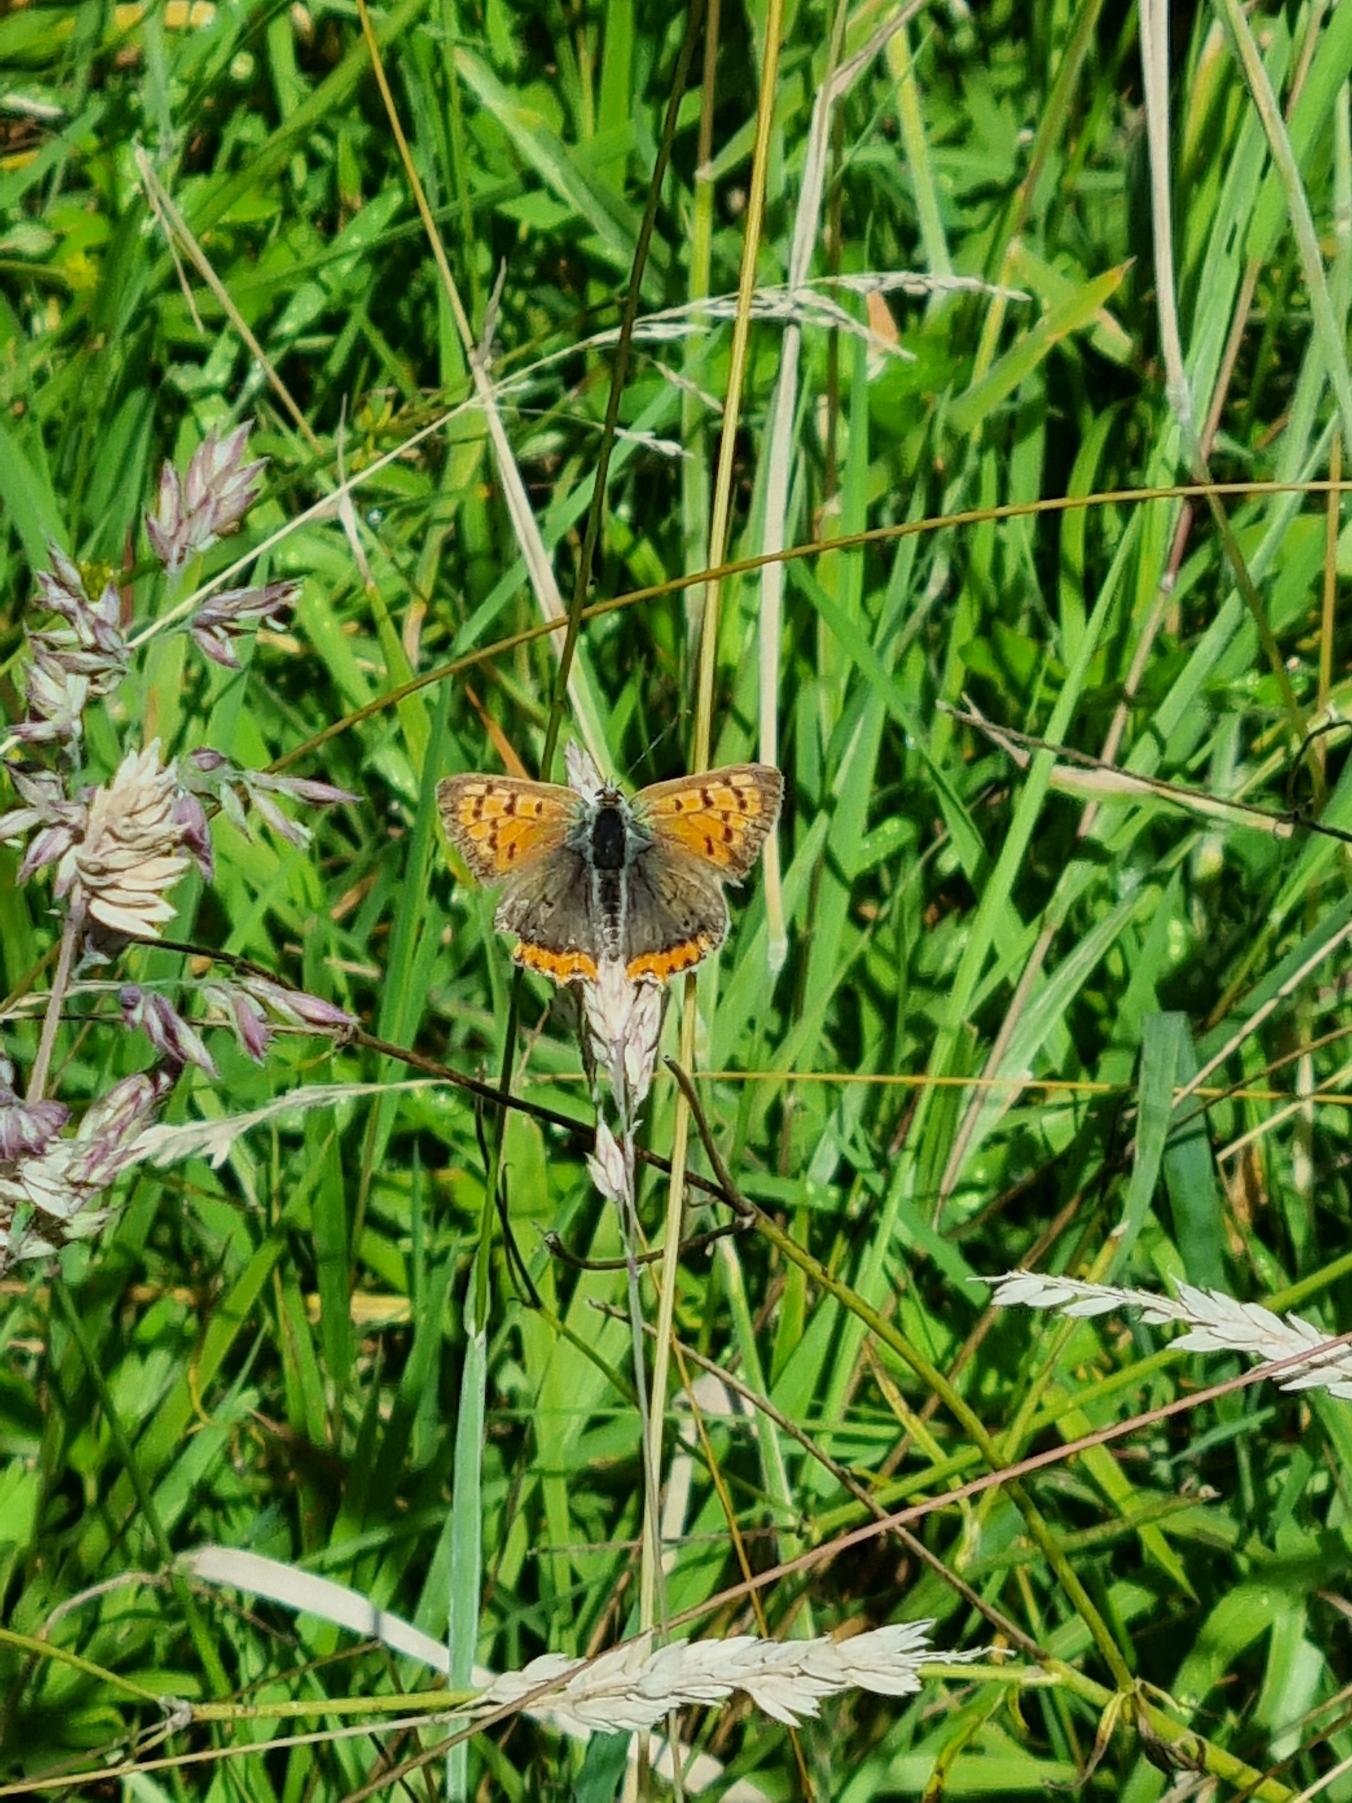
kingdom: Animalia
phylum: Arthropoda
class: Insecta
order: Lepidoptera
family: Lycaenidae
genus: Lycaena
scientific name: Lycaena phlaeas
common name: Lille ildfugl
